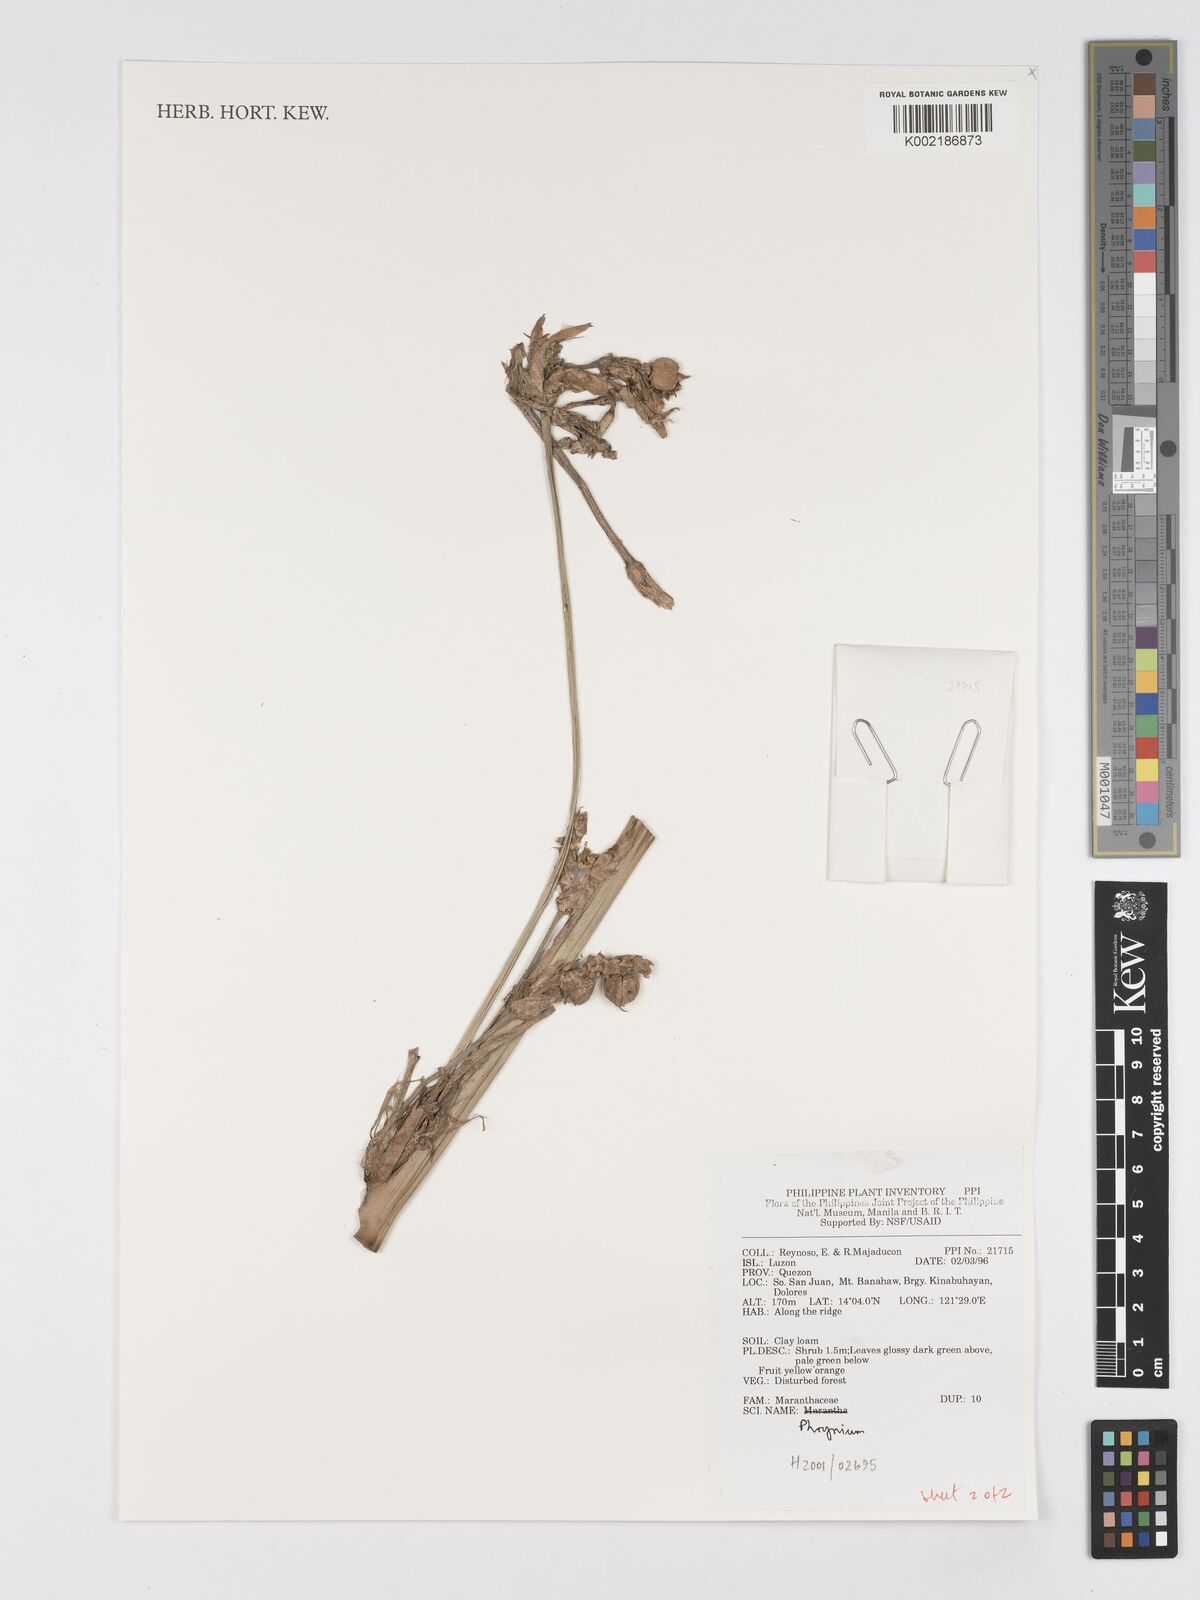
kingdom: Plantae
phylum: Tracheophyta
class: Liliopsida
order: Zingiberales
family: Marantaceae
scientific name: Marantaceae
